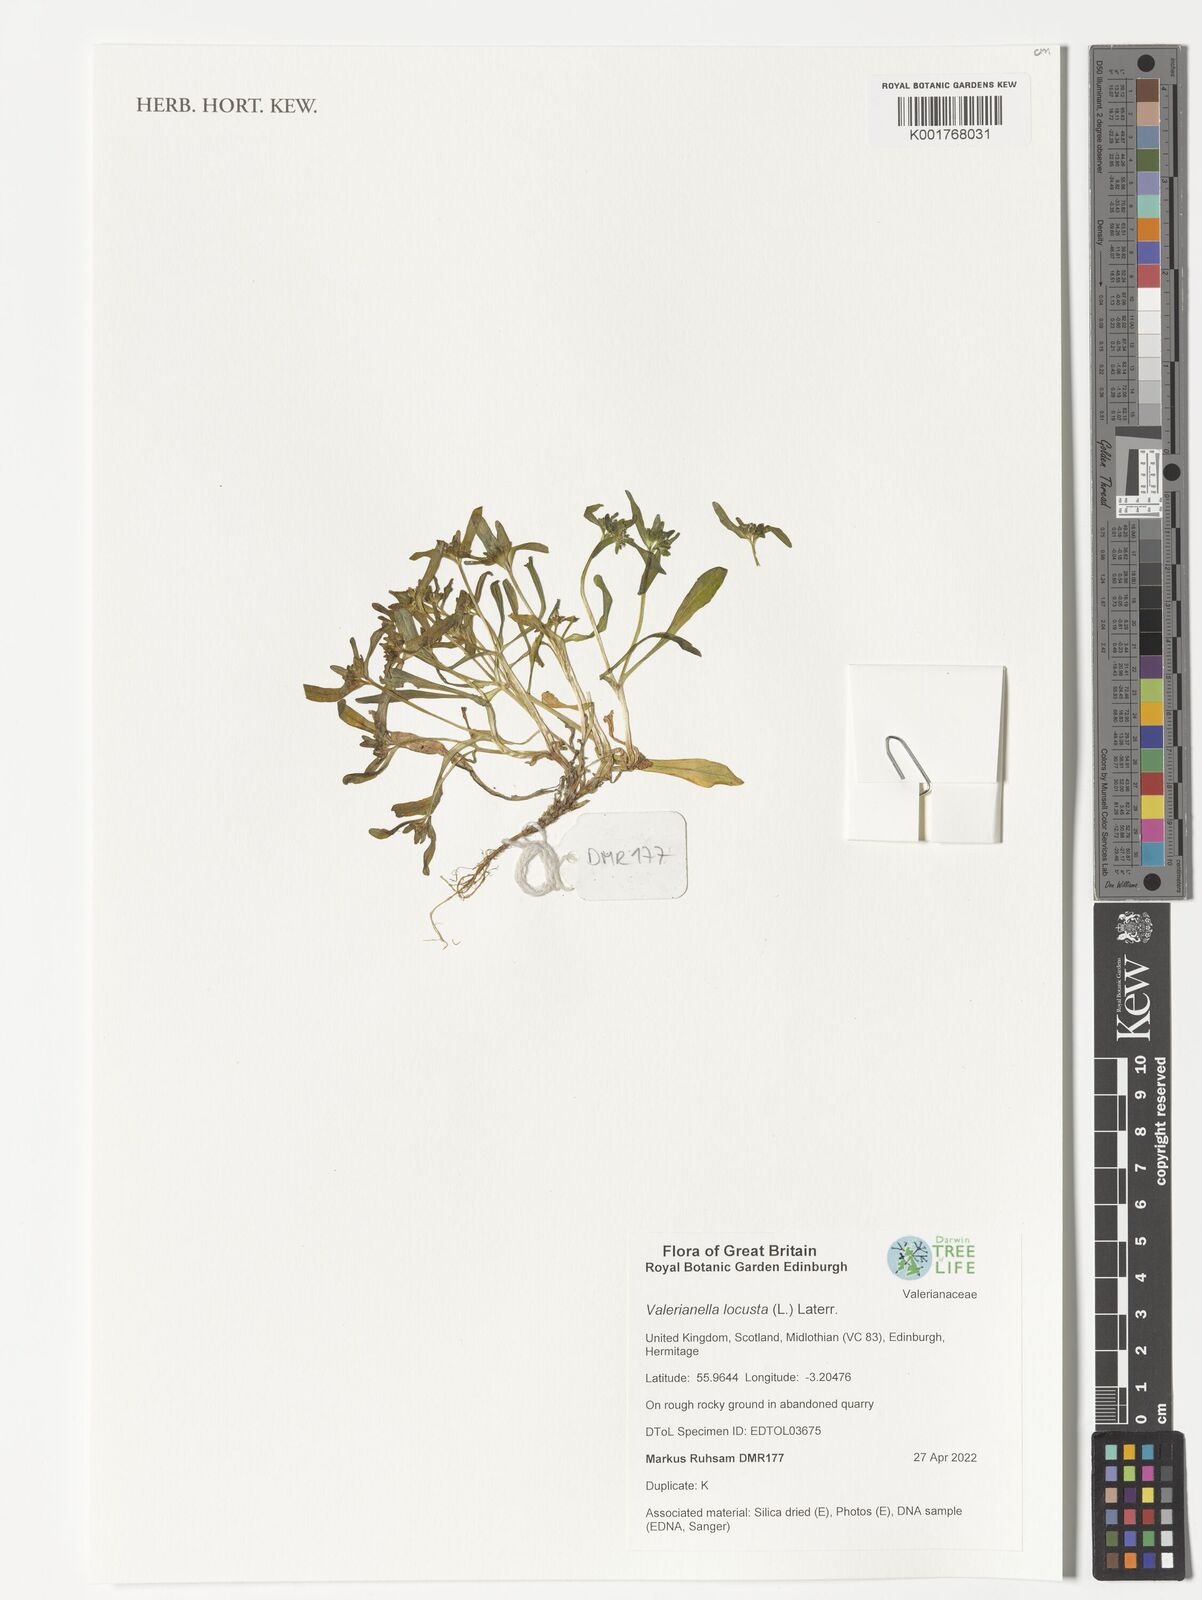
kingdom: Plantae
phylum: Tracheophyta
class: Magnoliopsida
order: Dipsacales
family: Caprifoliaceae
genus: Valerianella
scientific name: Valerianella locusta
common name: Common cornsalad
